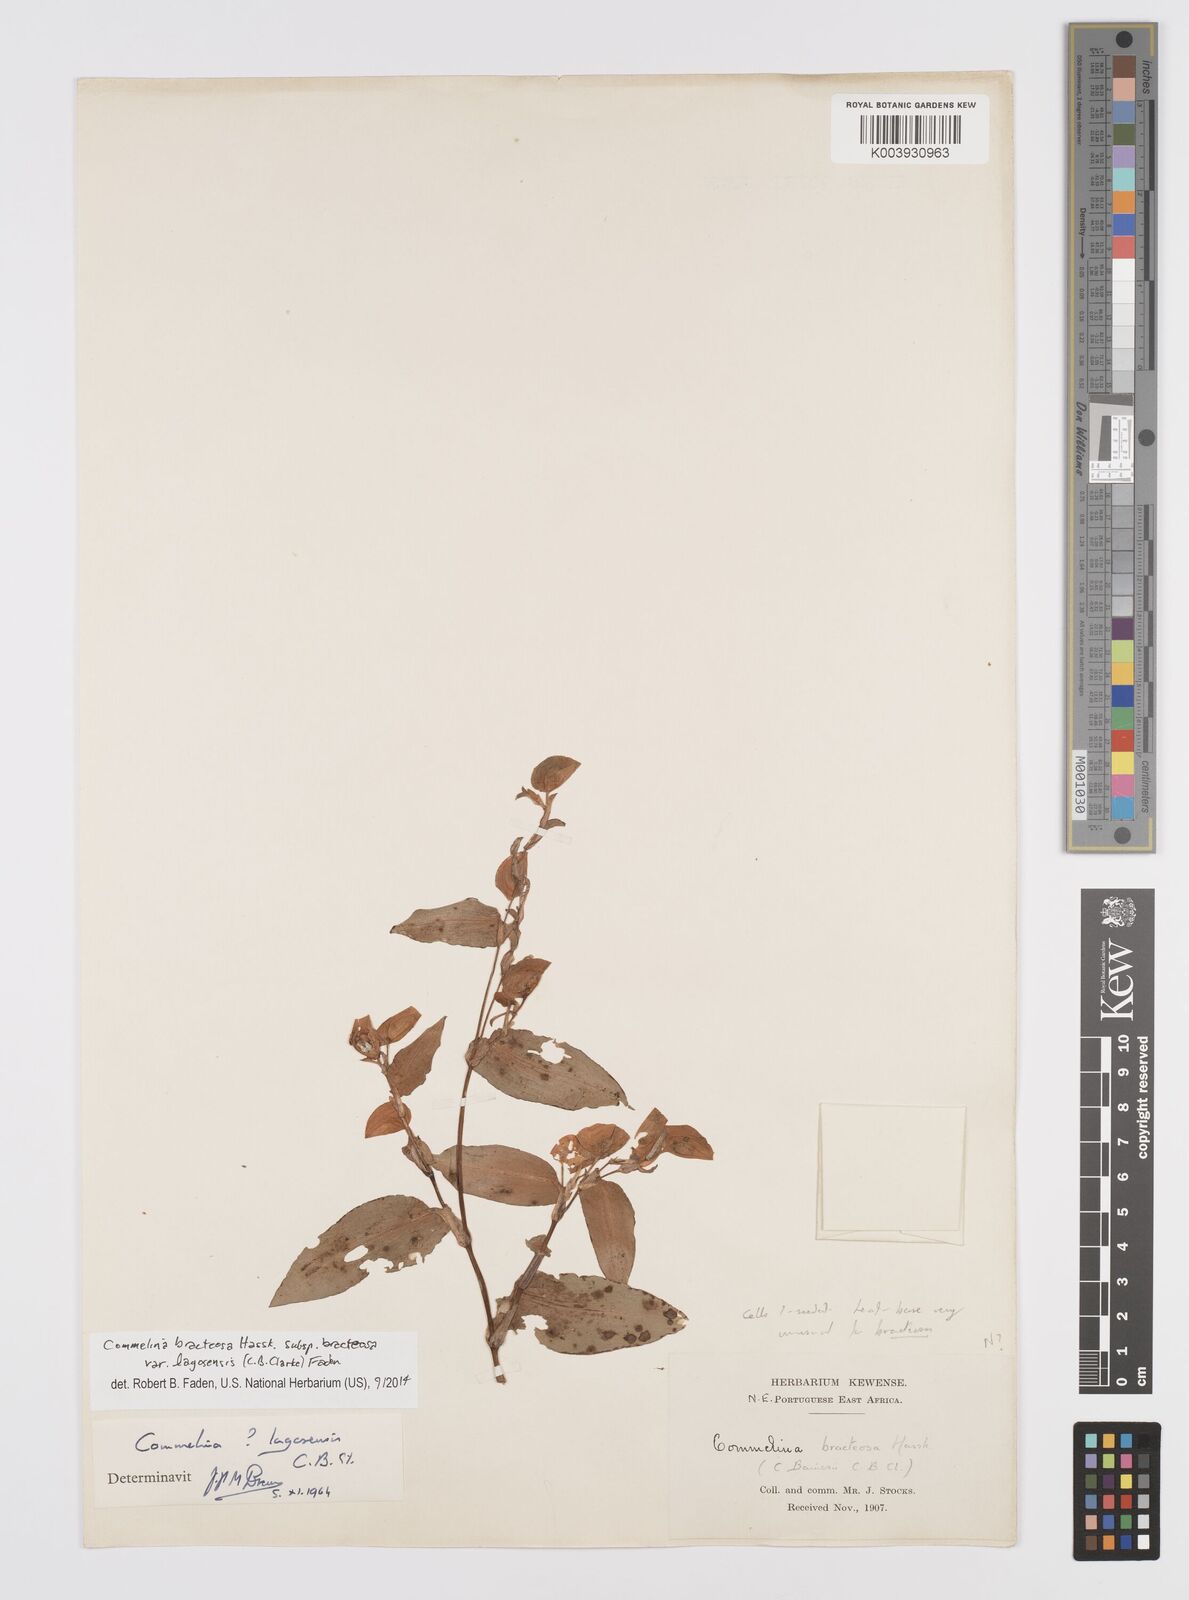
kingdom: Plantae
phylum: Tracheophyta
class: Liliopsida
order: Commelinales
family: Commelinaceae
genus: Commelina
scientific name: Commelina bracteosa
